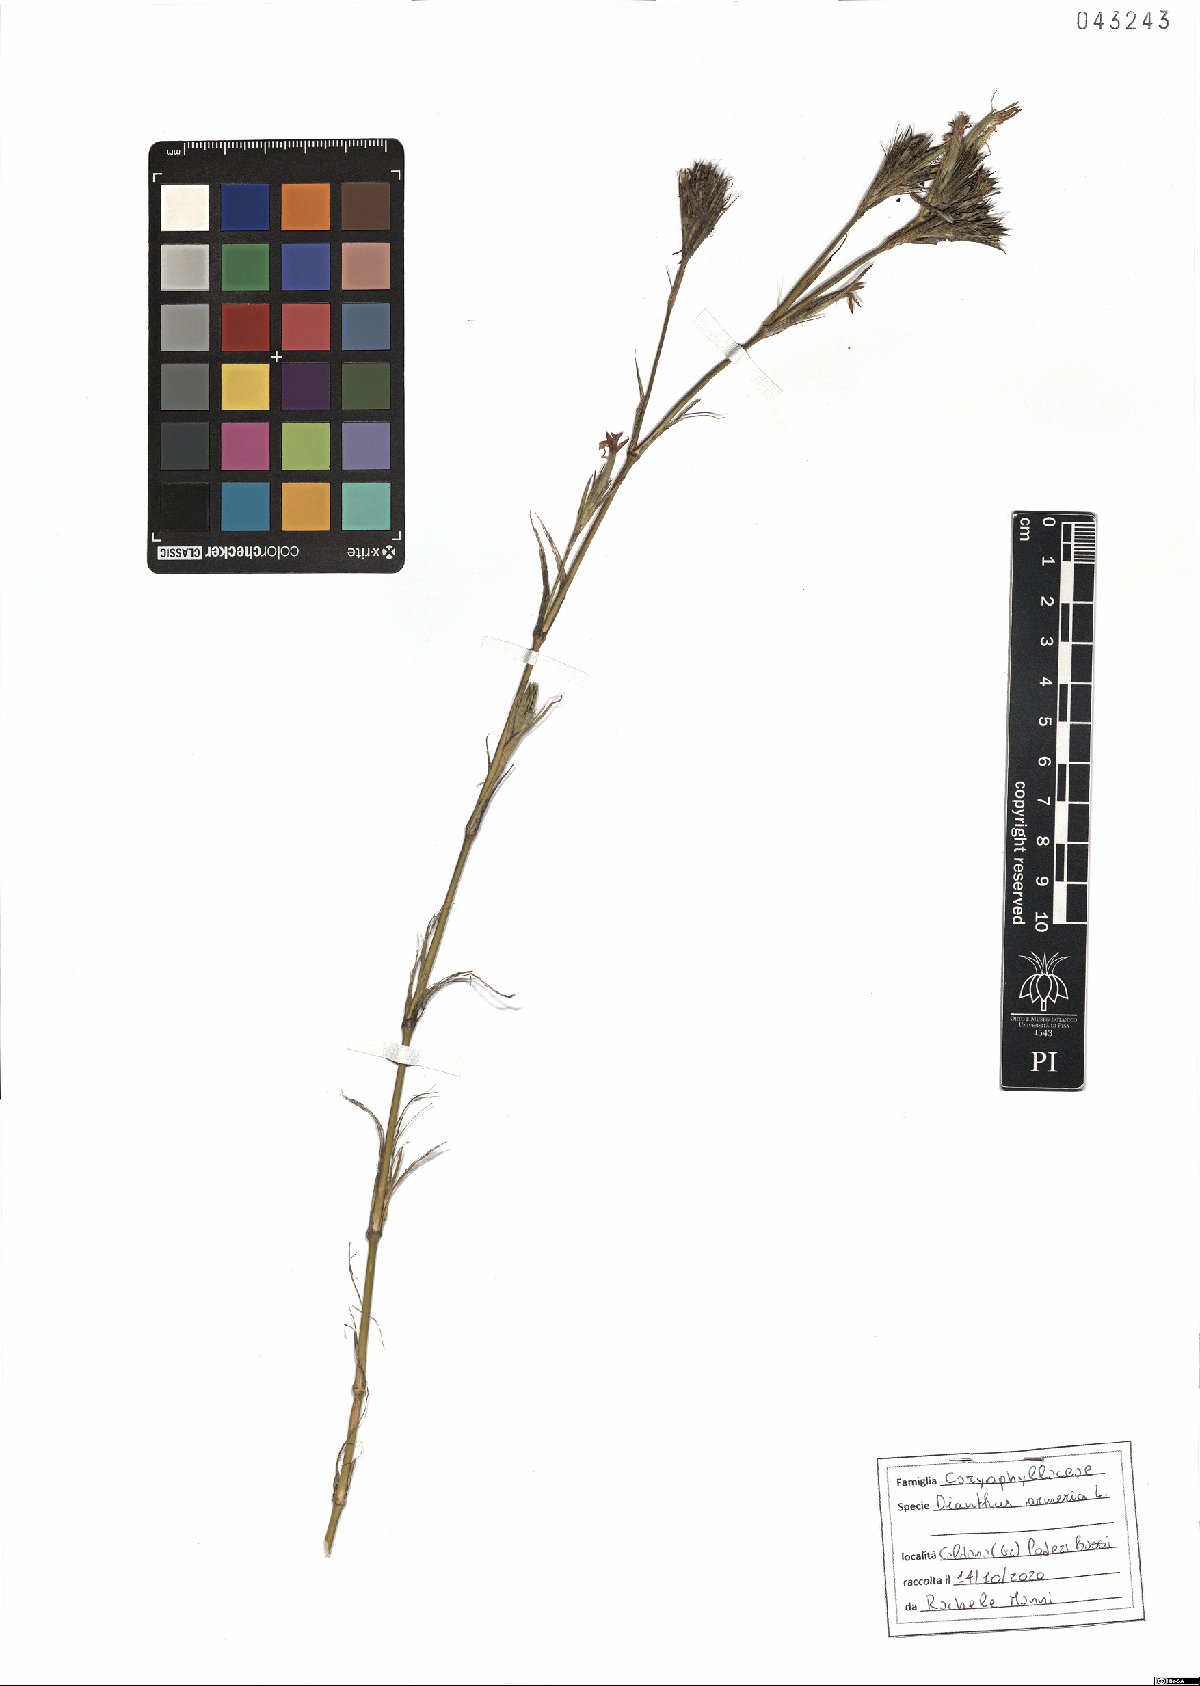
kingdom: Plantae
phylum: Tracheophyta
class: Magnoliopsida
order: Caryophyllales
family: Caryophyllaceae
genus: Dianthus
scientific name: Dianthus armeria
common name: Deptford pink
